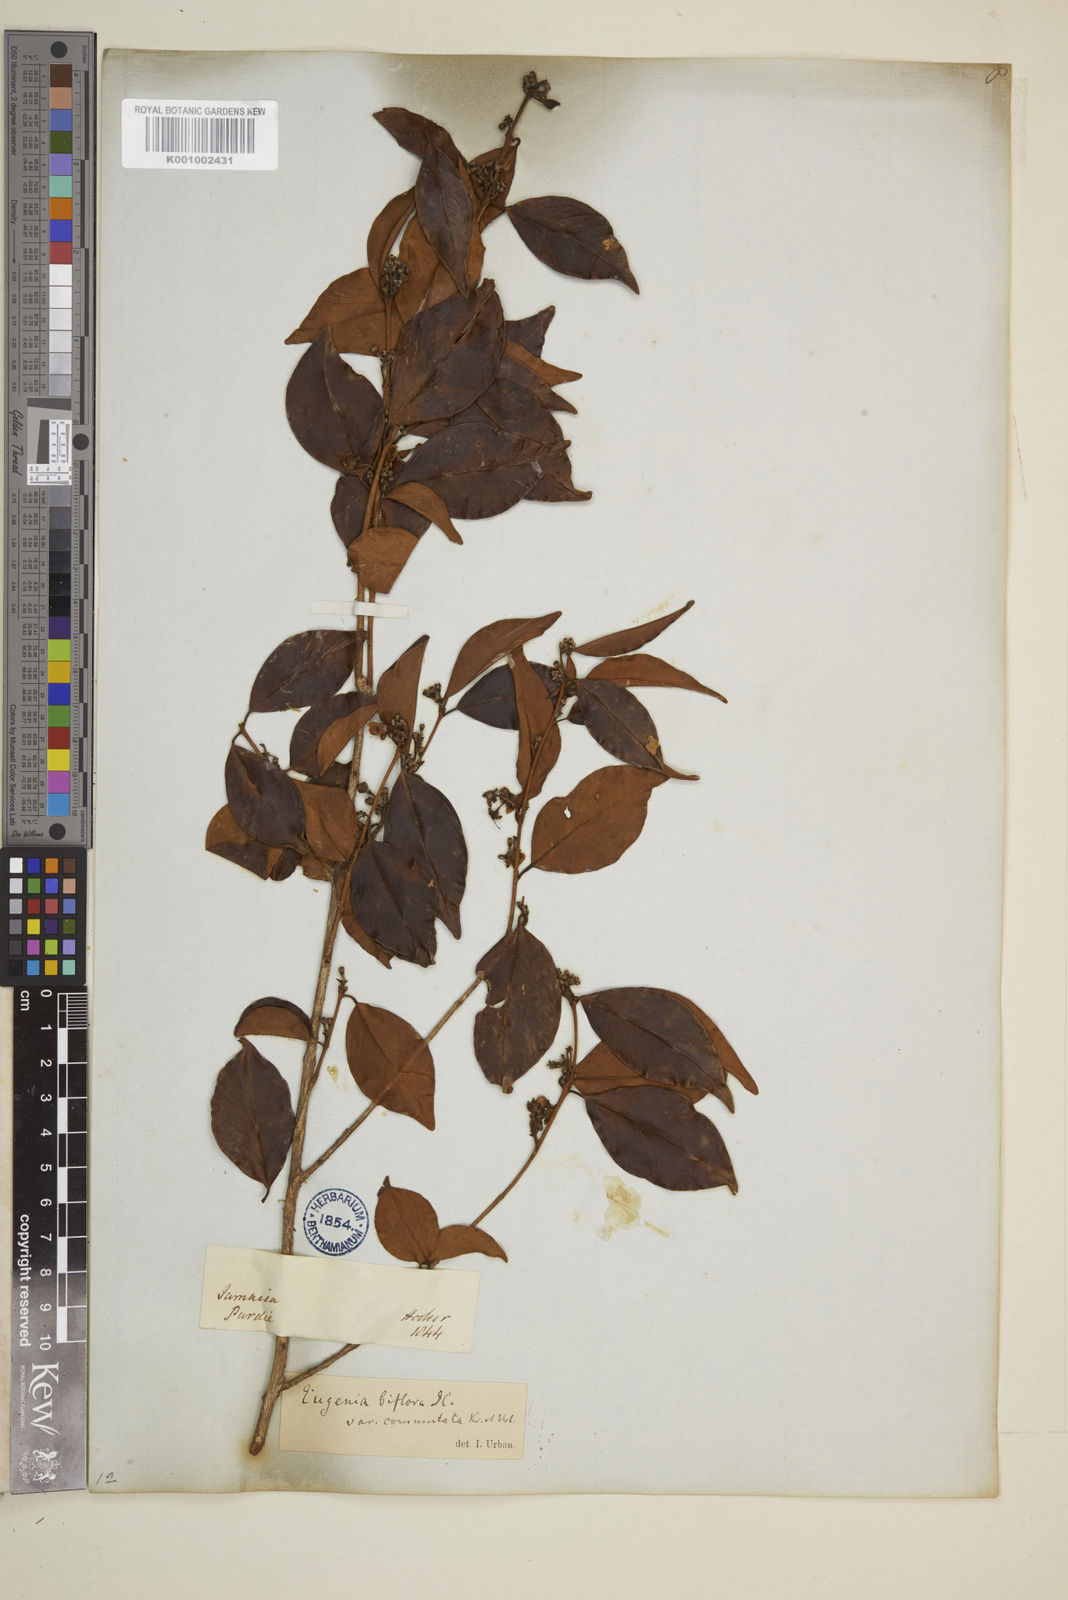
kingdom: Plantae
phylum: Tracheophyta
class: Magnoliopsida
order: Myrtales
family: Myrtaceae
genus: Eugenia
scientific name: Eugenia biflora
